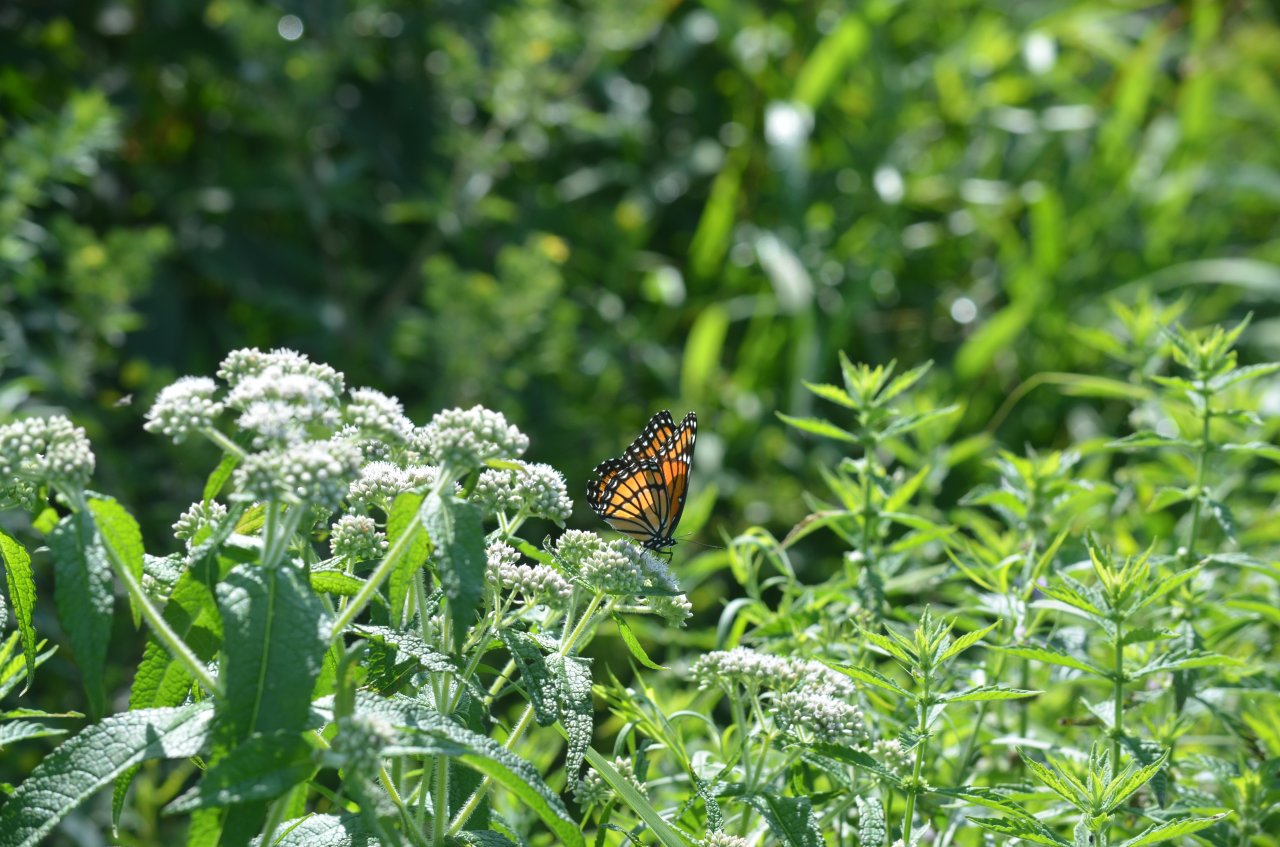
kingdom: Animalia
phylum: Arthropoda
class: Insecta
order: Lepidoptera
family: Nymphalidae
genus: Limenitis
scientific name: Limenitis archippus
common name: Viceroy
